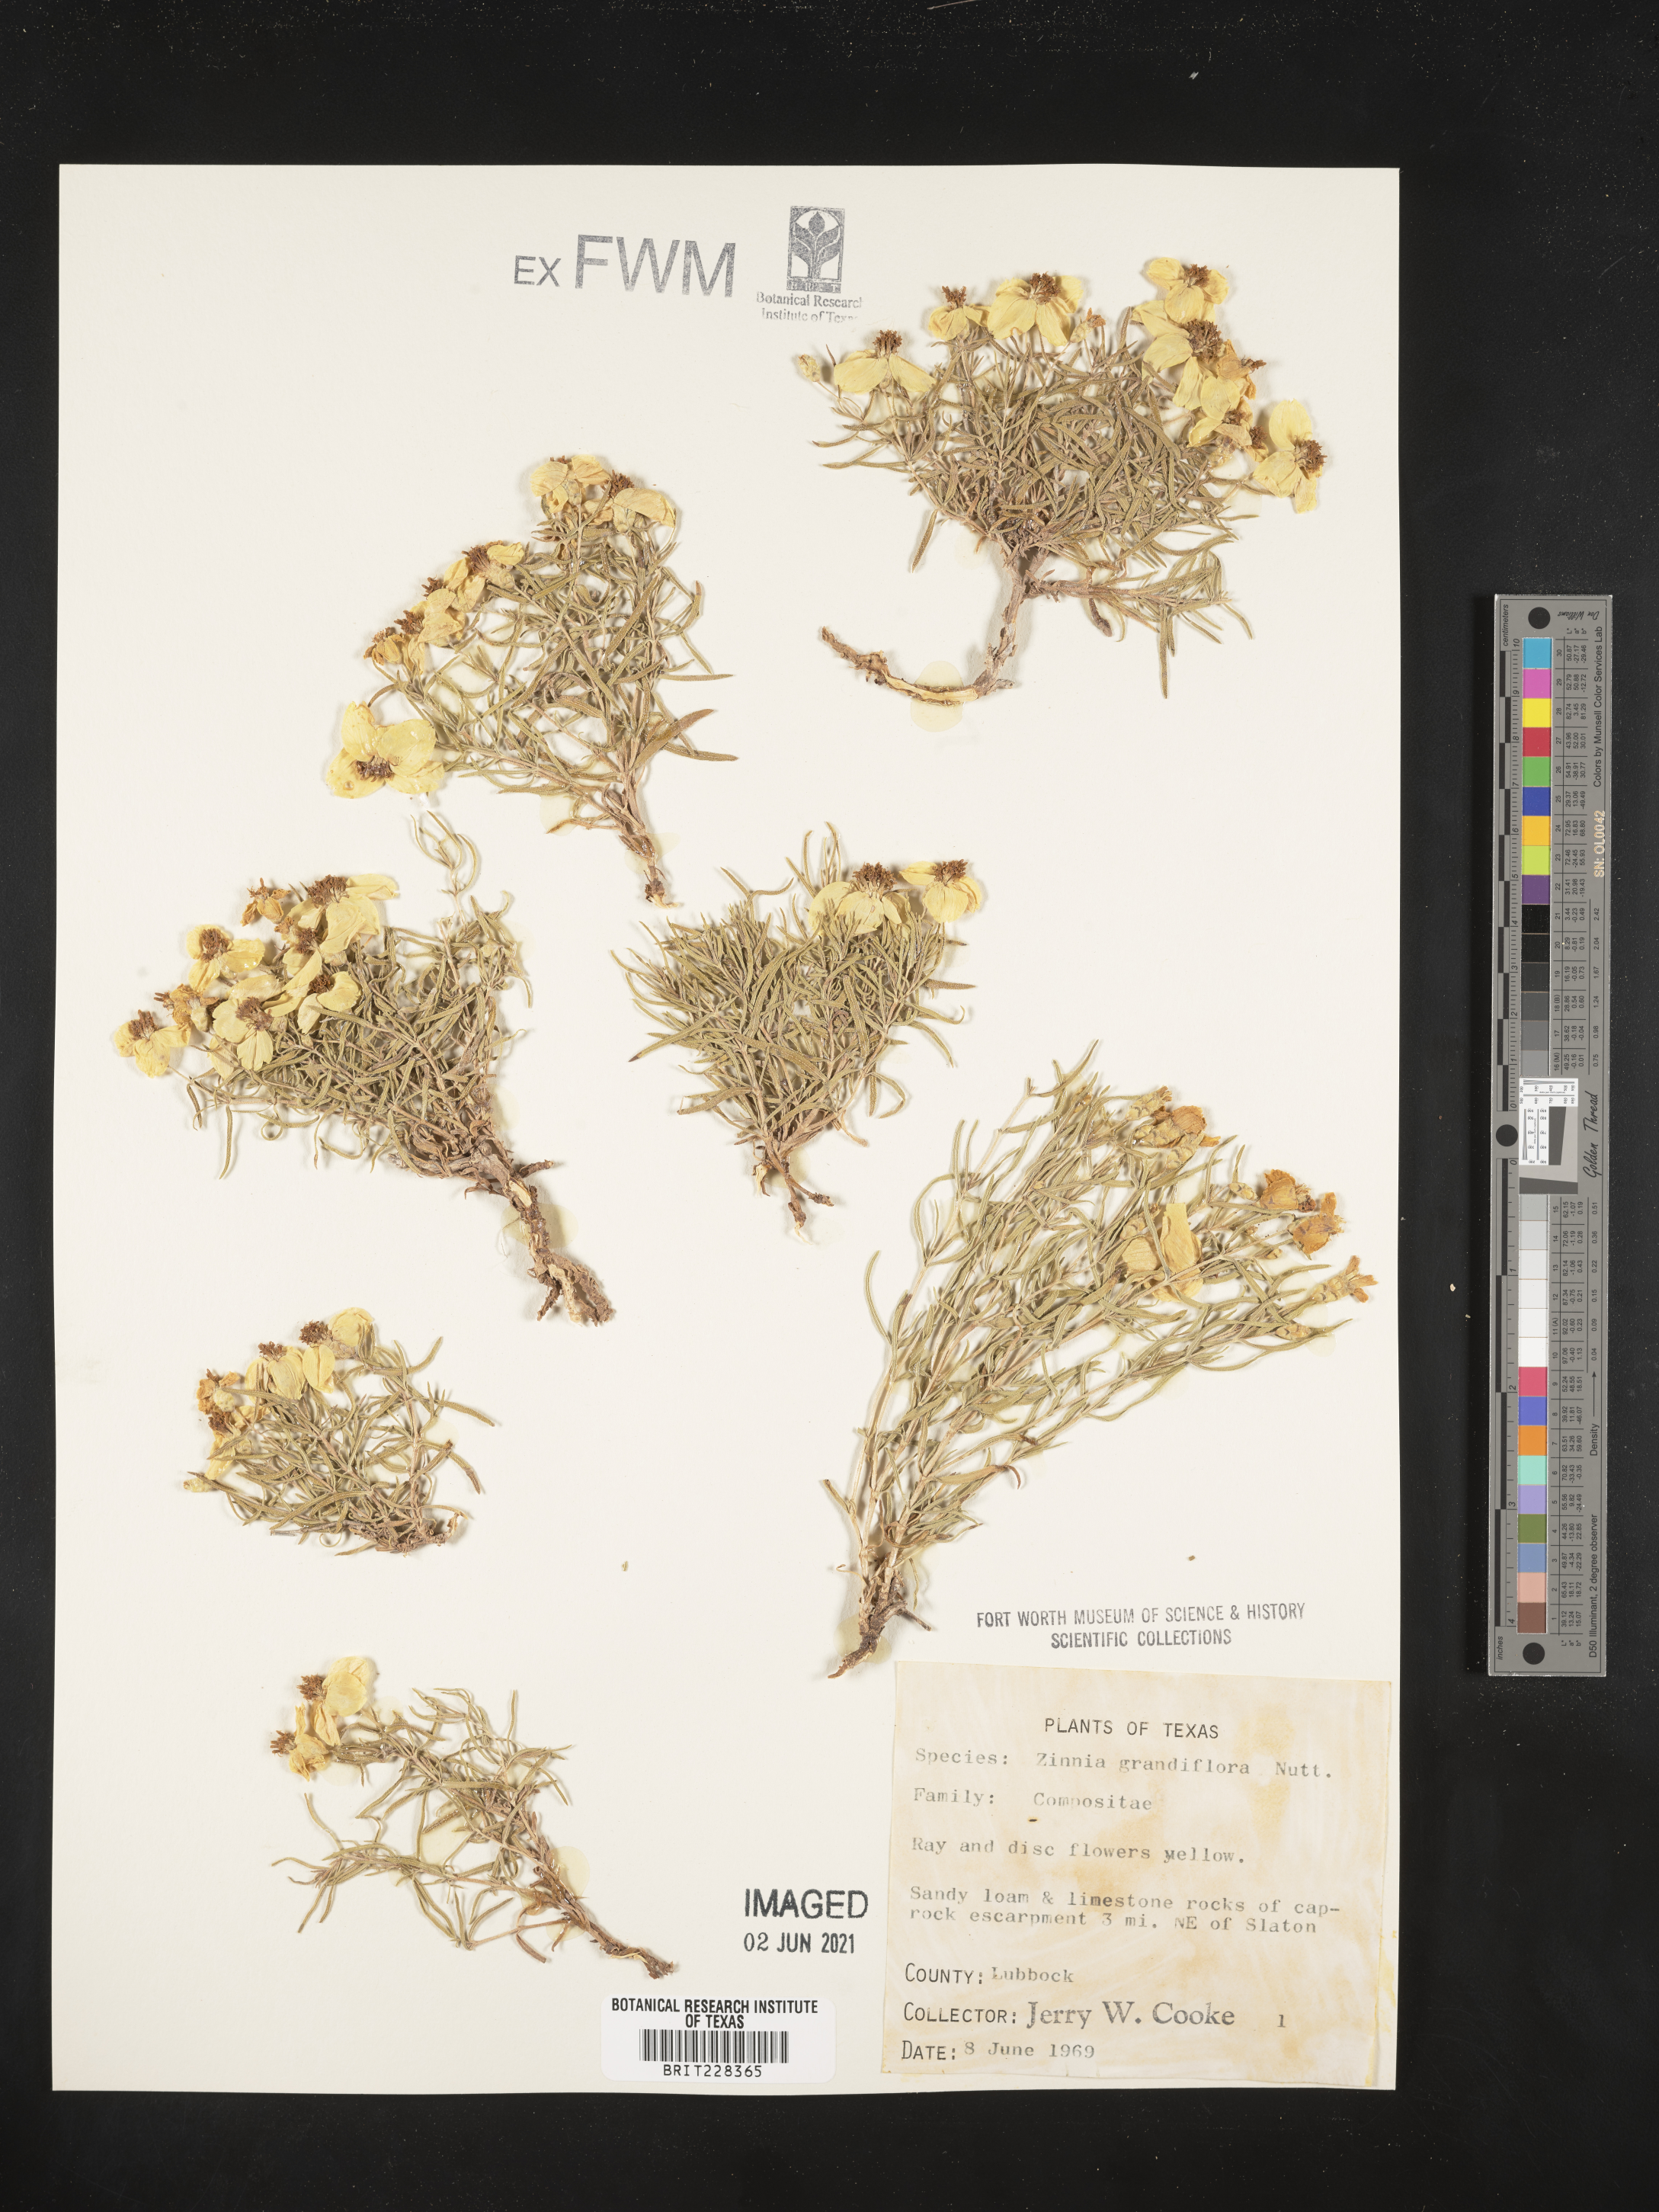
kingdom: Plantae
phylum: Tracheophyta
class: Magnoliopsida
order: Asterales
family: Asteraceae
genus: Zinnia
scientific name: Zinnia grandiflora
